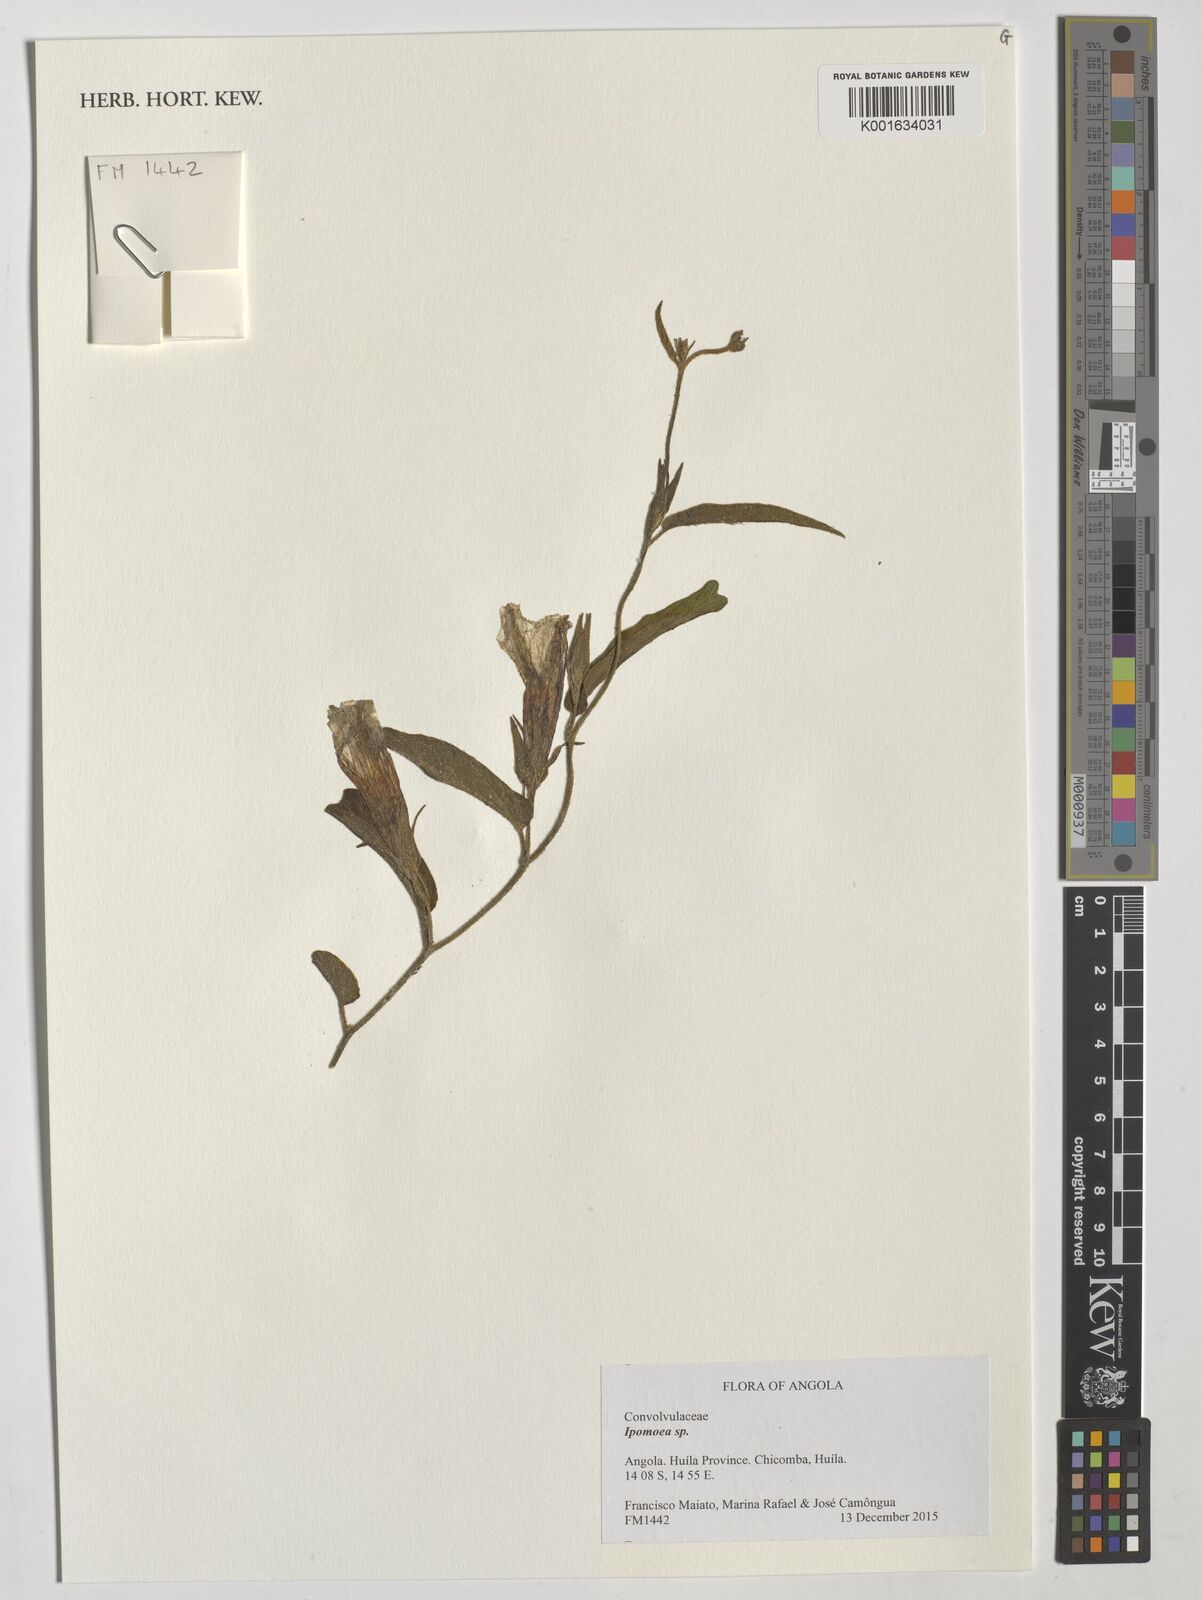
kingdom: Plantae
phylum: Tracheophyta
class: Magnoliopsida
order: Solanales
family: Convolvulaceae
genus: Ipomoea
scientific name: Ipomoea
